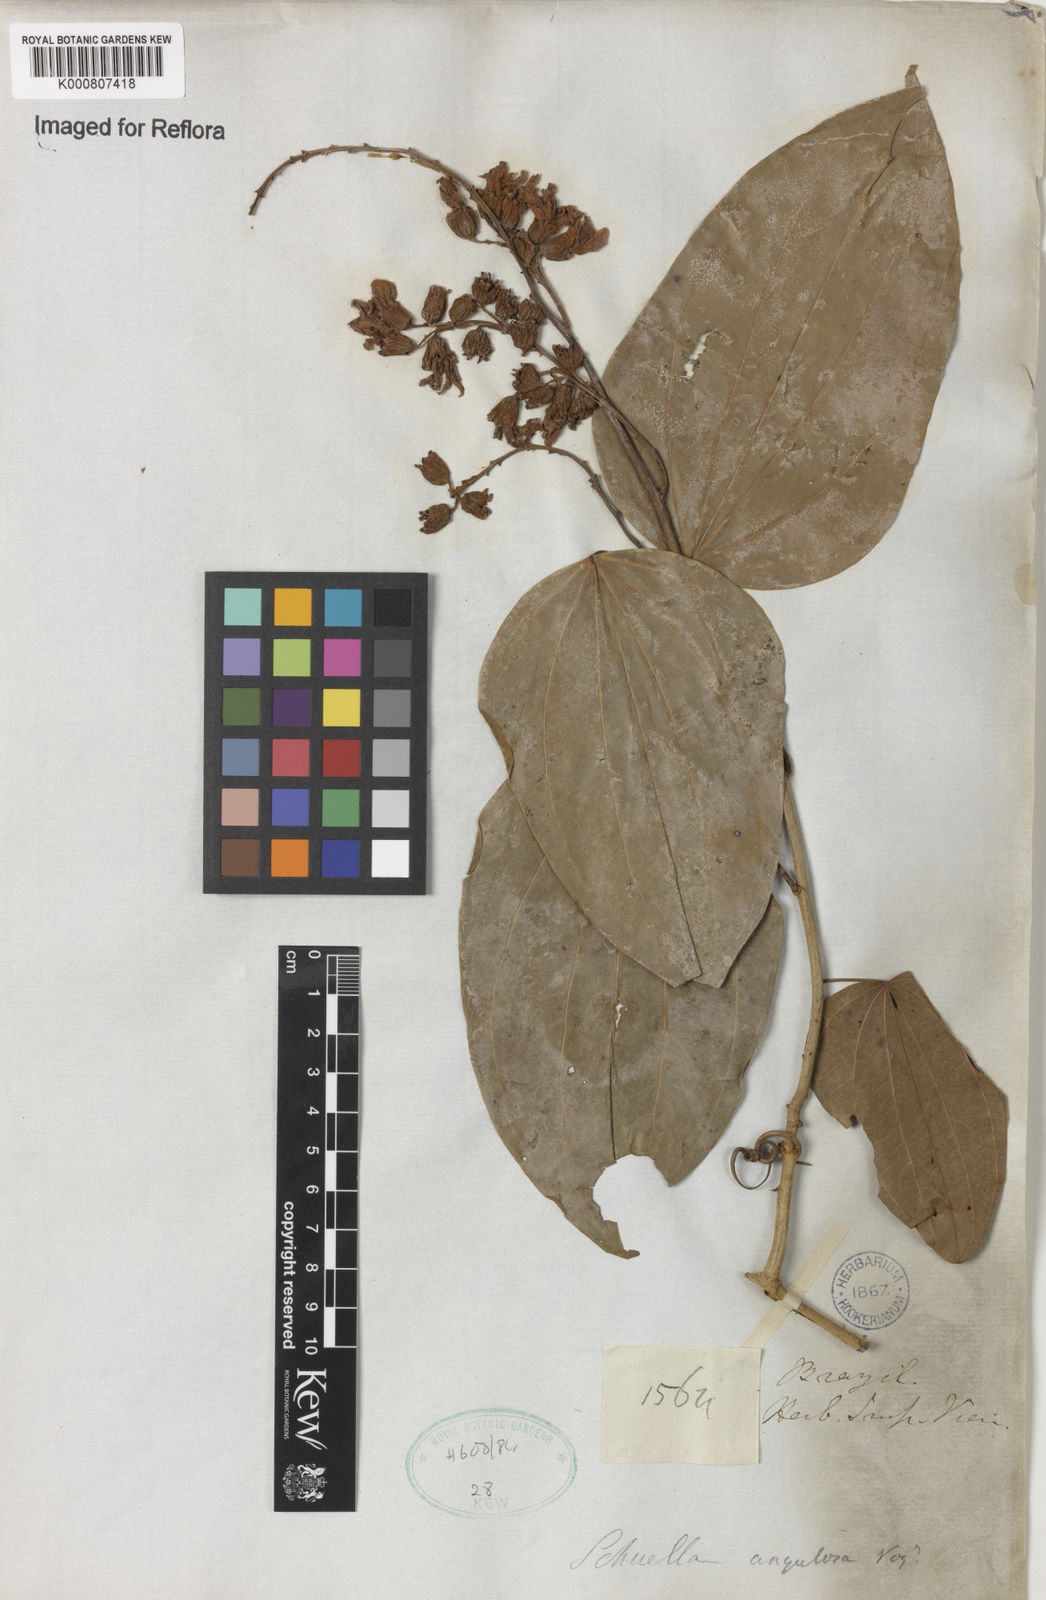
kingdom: Plantae
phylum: Tracheophyta
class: Magnoliopsida
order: Fabales
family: Fabaceae
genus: Bauhinia
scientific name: Bauhinia
